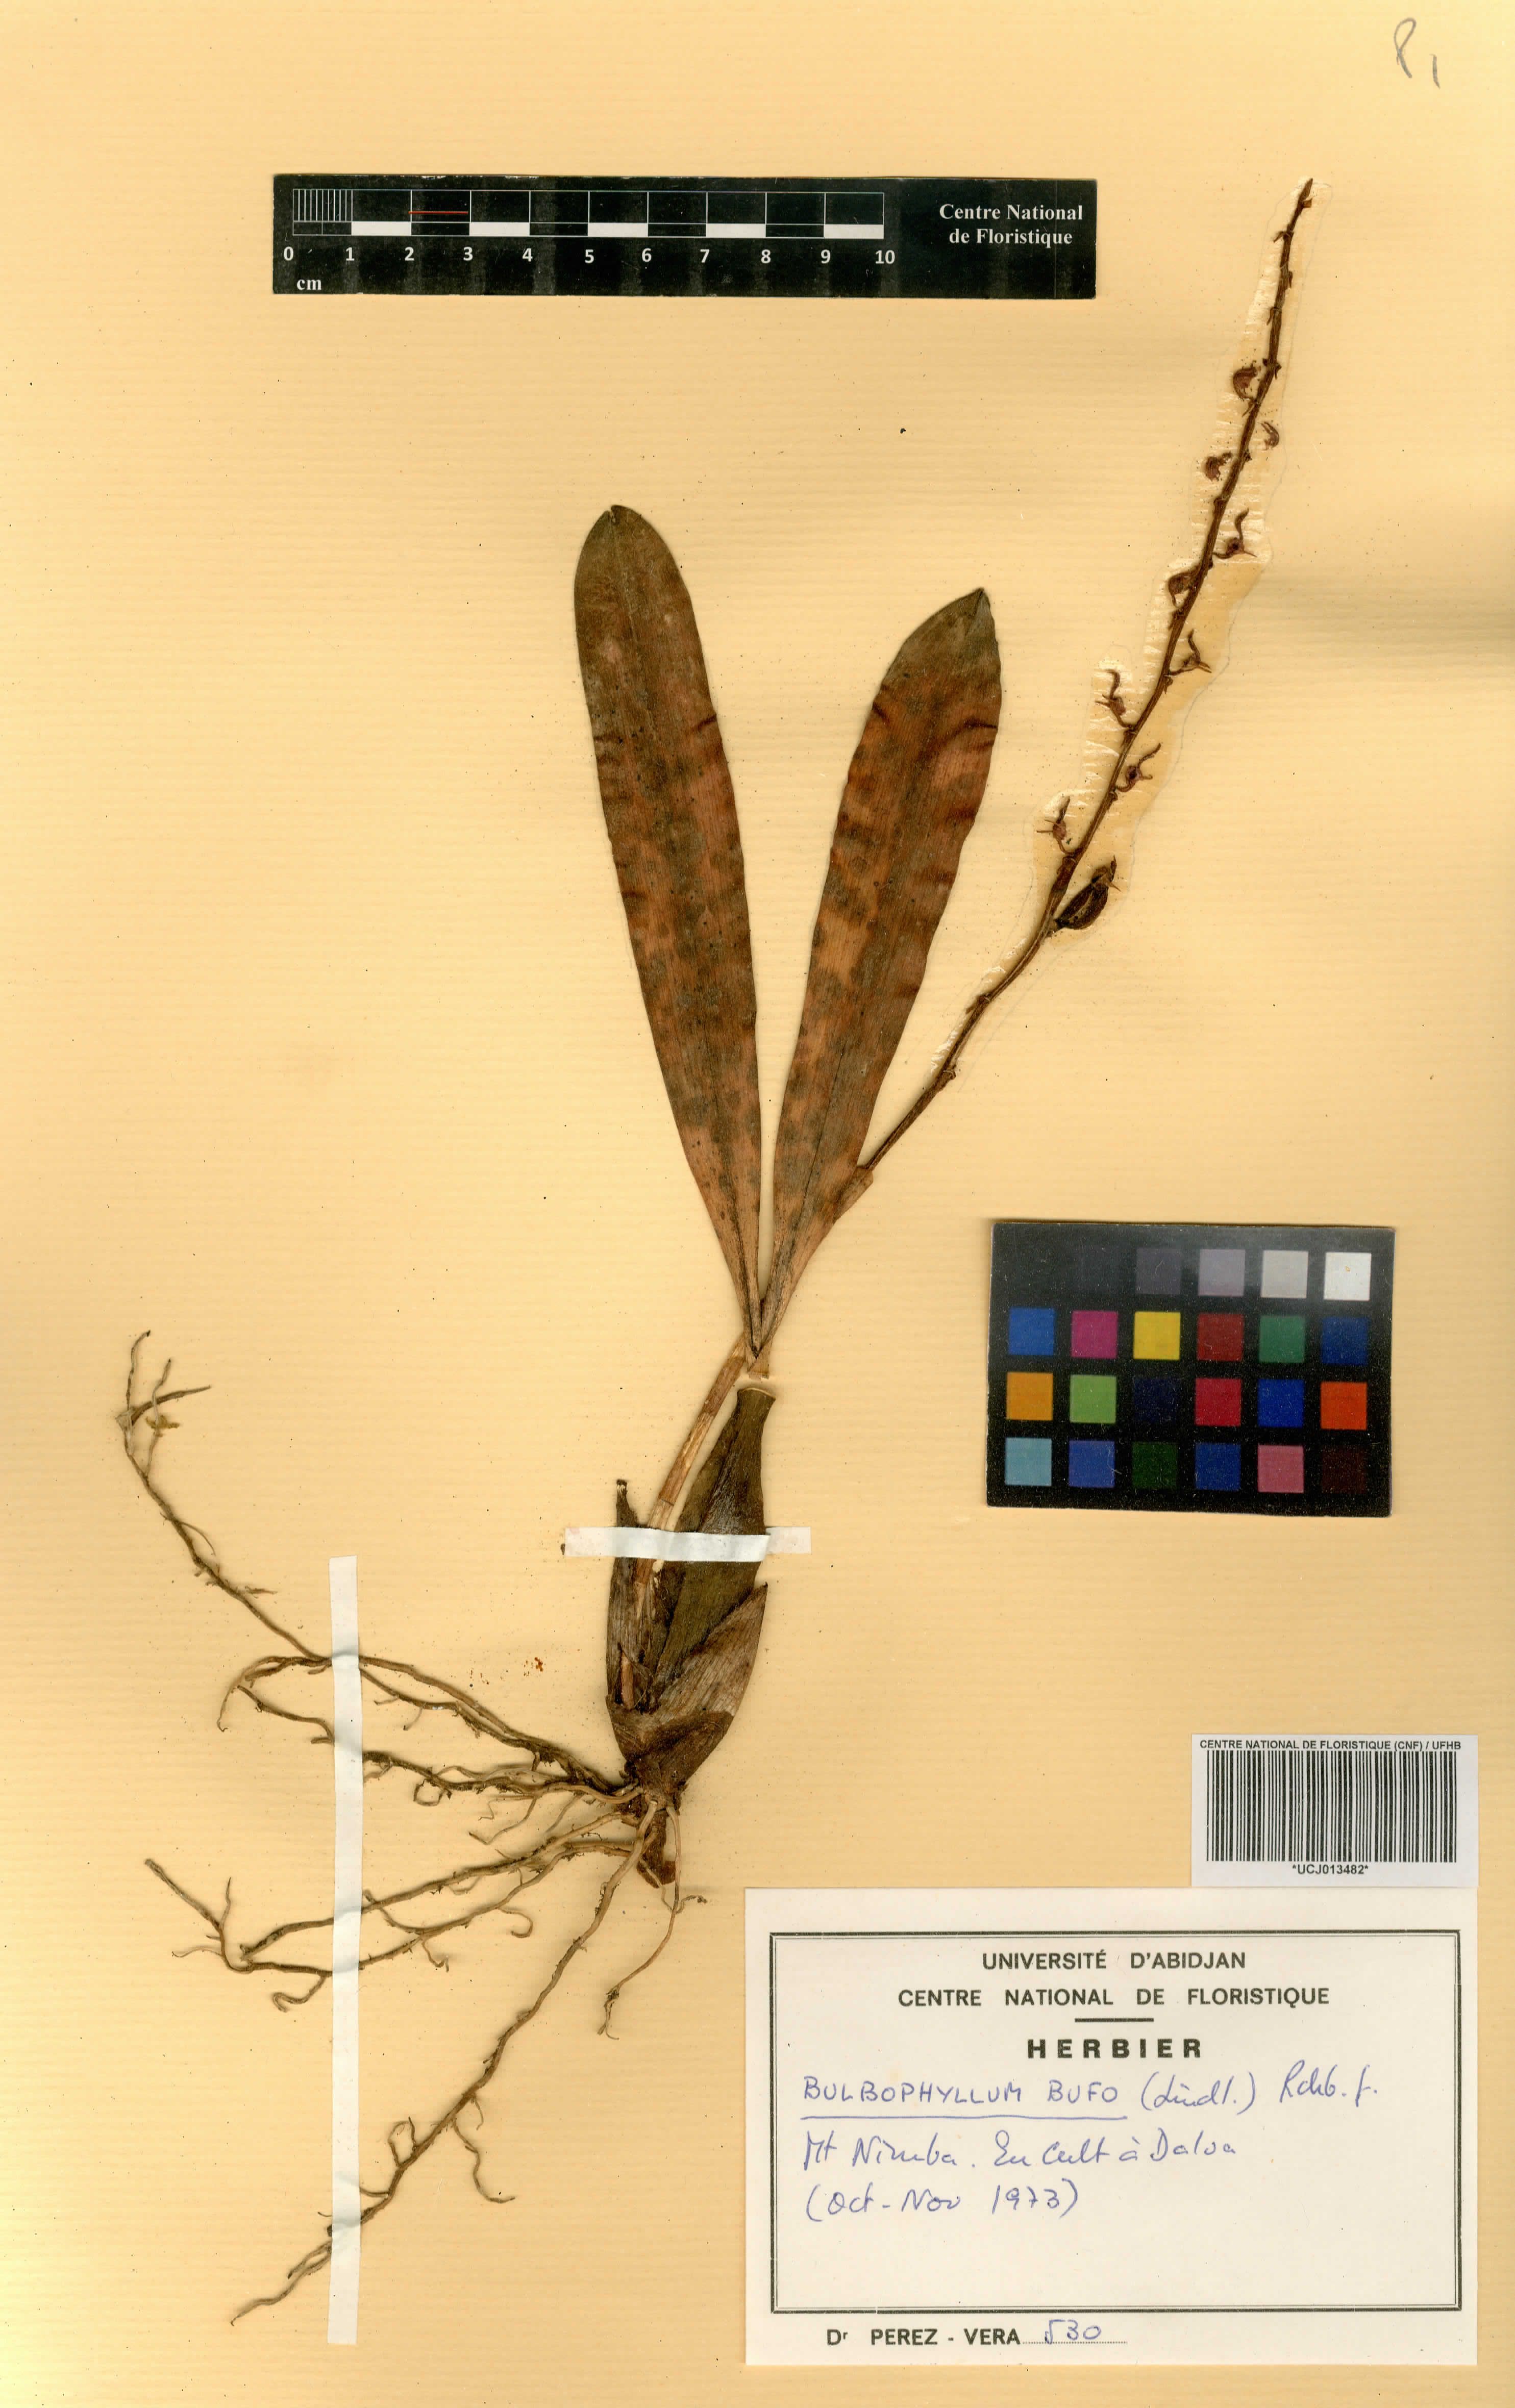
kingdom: Plantae
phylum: Tracheophyta
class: Liliopsida
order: Asparagales
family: Orchidaceae
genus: Bulbophyllum
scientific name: Bulbophyllum falcatum
